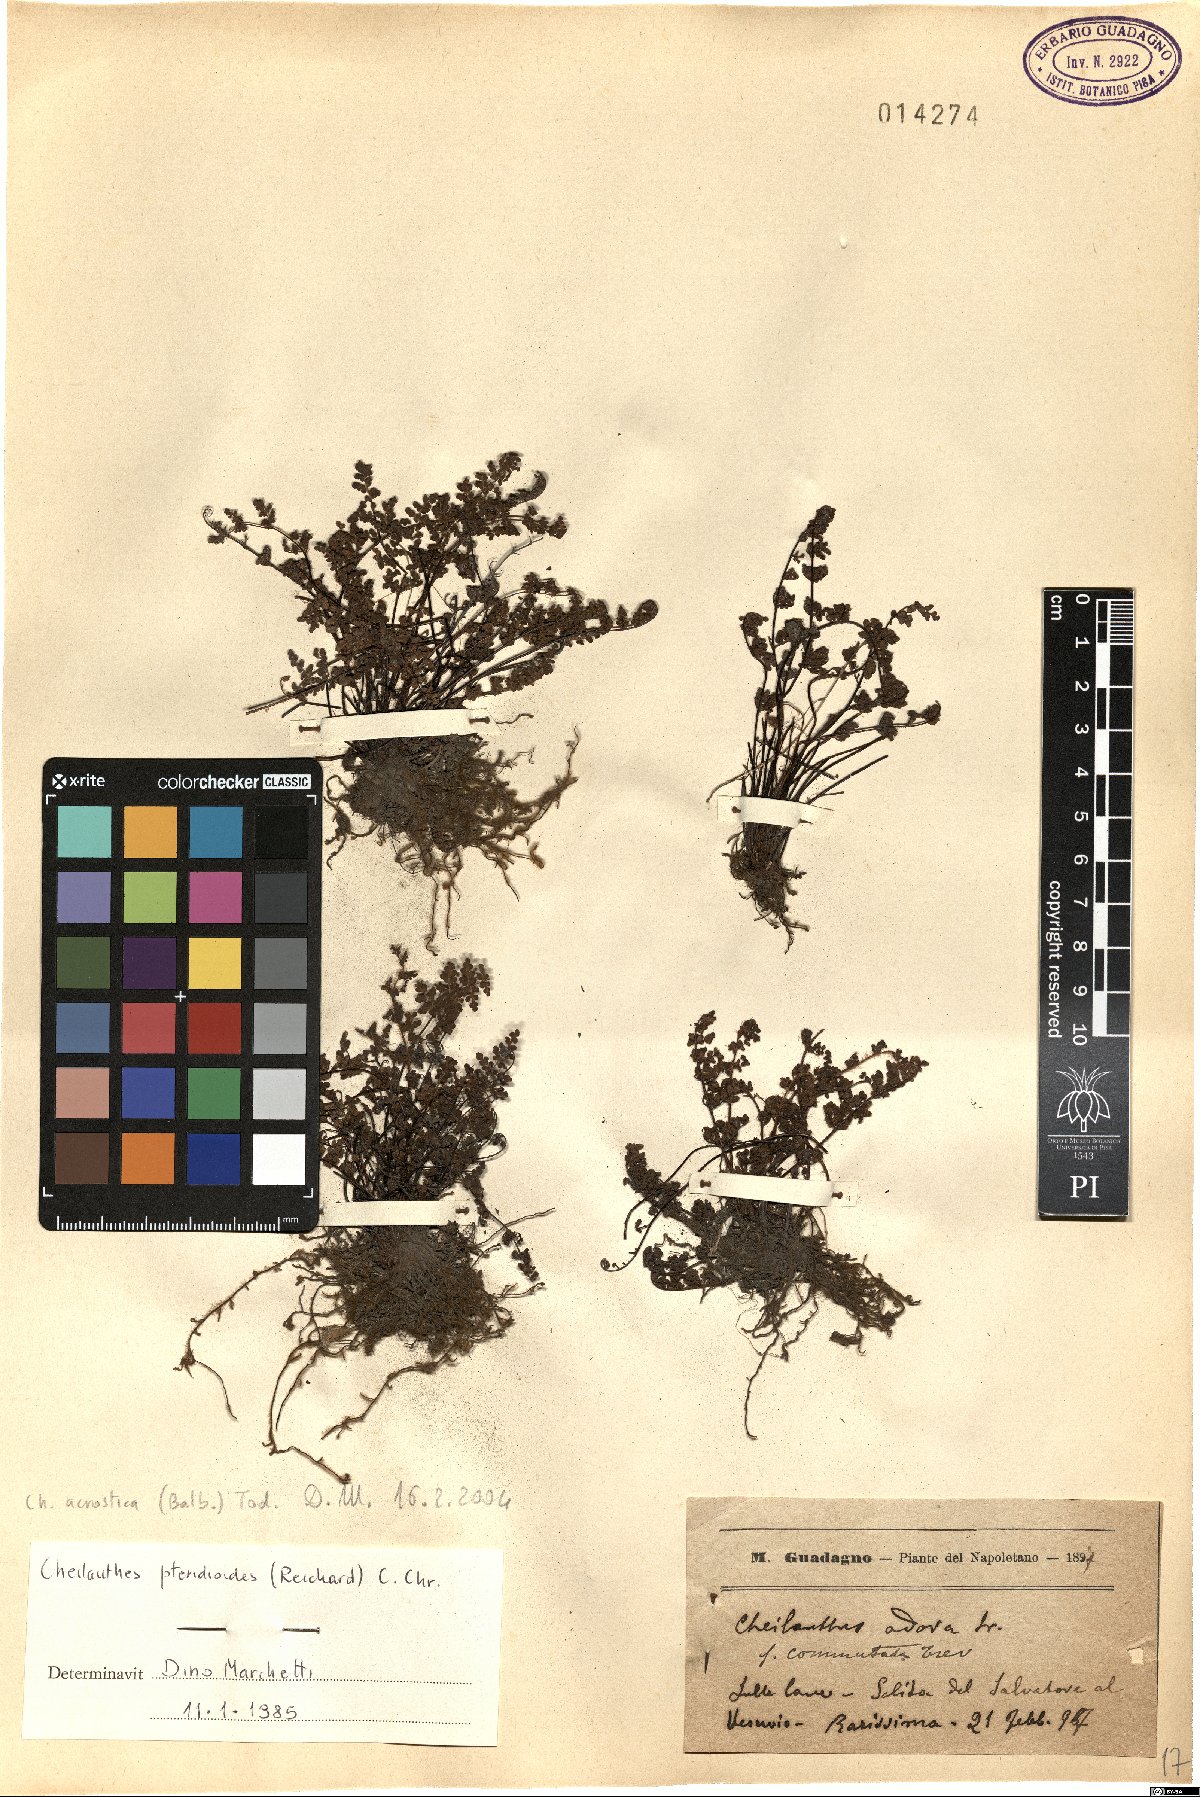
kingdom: Plantae
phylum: Tracheophyta
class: Polypodiopsida
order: Polypodiales
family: Pteridaceae
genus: Oeosporangium
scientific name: Oeosporangium pteridioides
